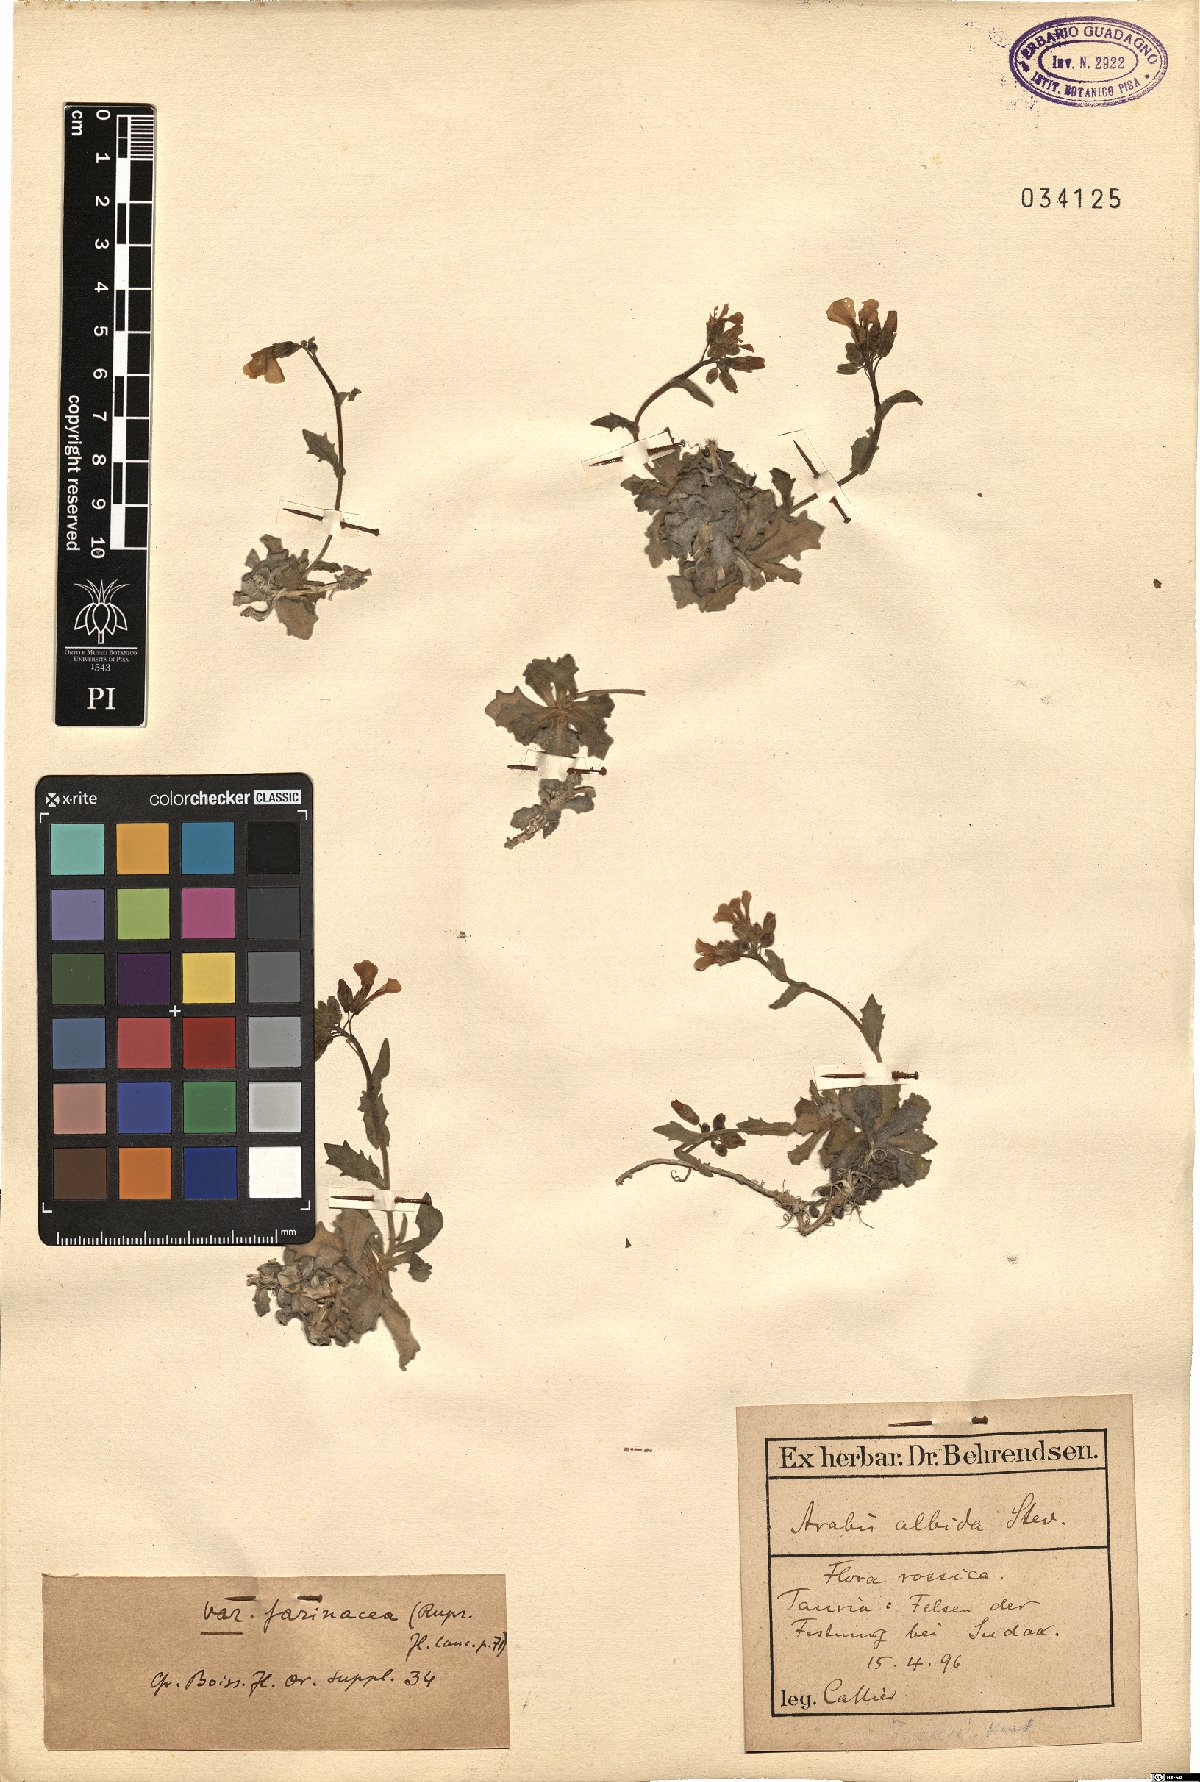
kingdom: Plantae
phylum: Tracheophyta
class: Magnoliopsida
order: Brassicales
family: Brassicaceae
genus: Arabis
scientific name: Arabis farinacea
